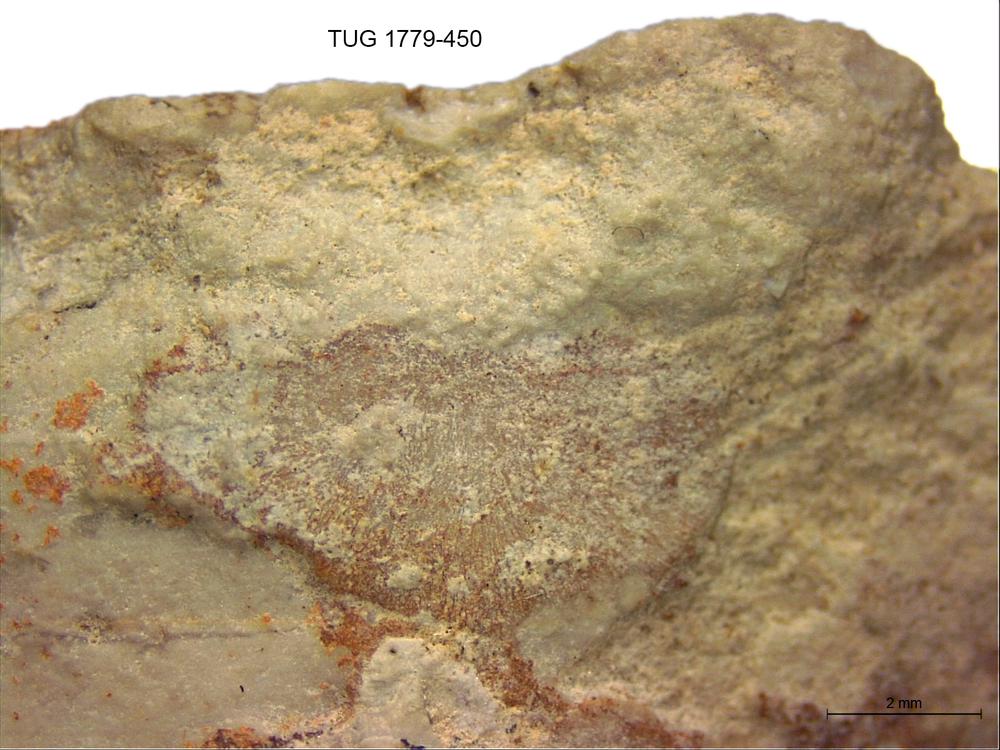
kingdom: Animalia
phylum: Bryozoa
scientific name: Bryozoa
